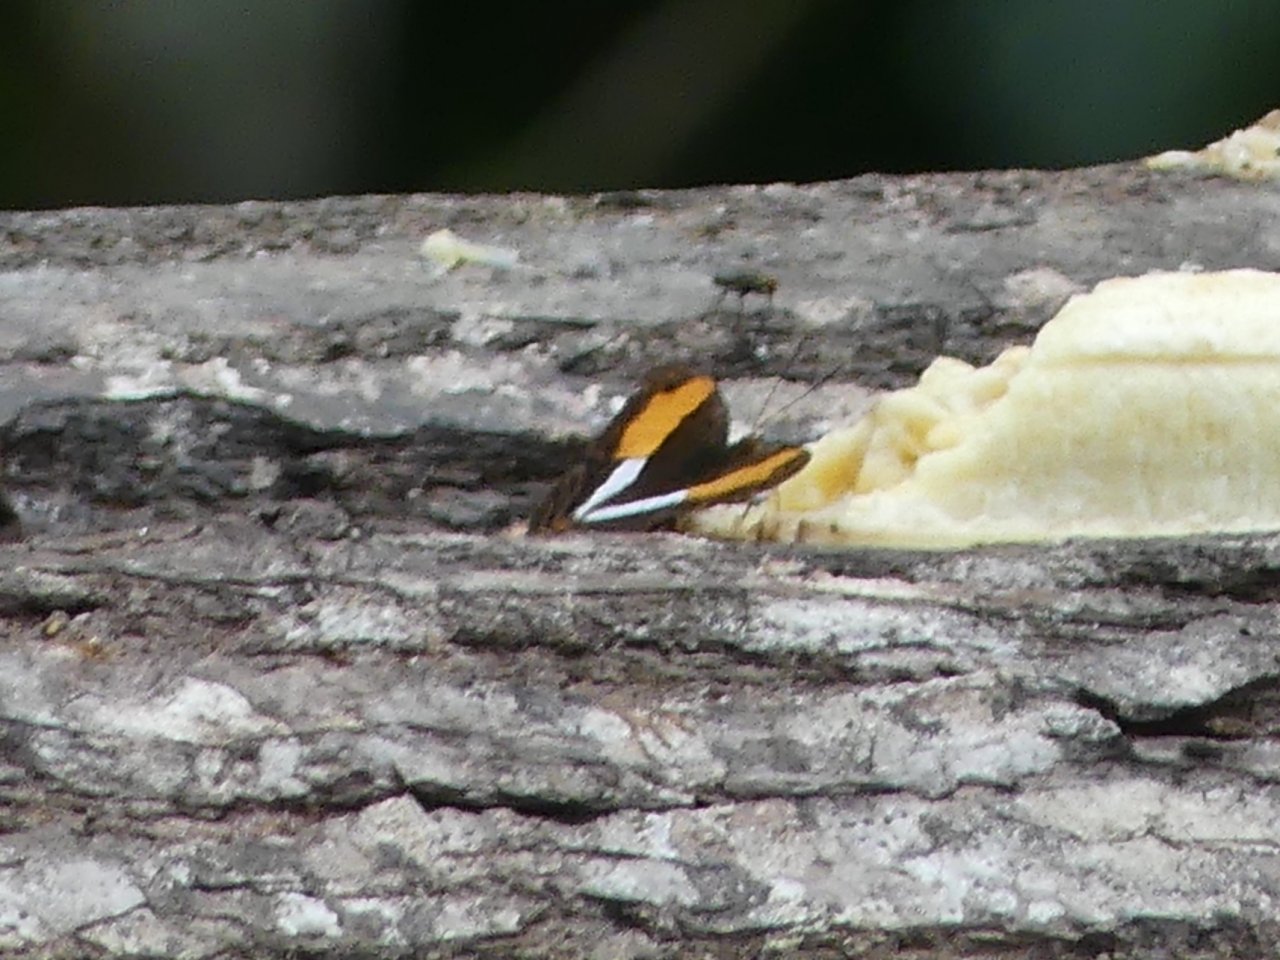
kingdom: Animalia
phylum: Arthropoda
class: Insecta
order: Lepidoptera
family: Nymphalidae
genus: Limenitis
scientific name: Limenitis cocala
